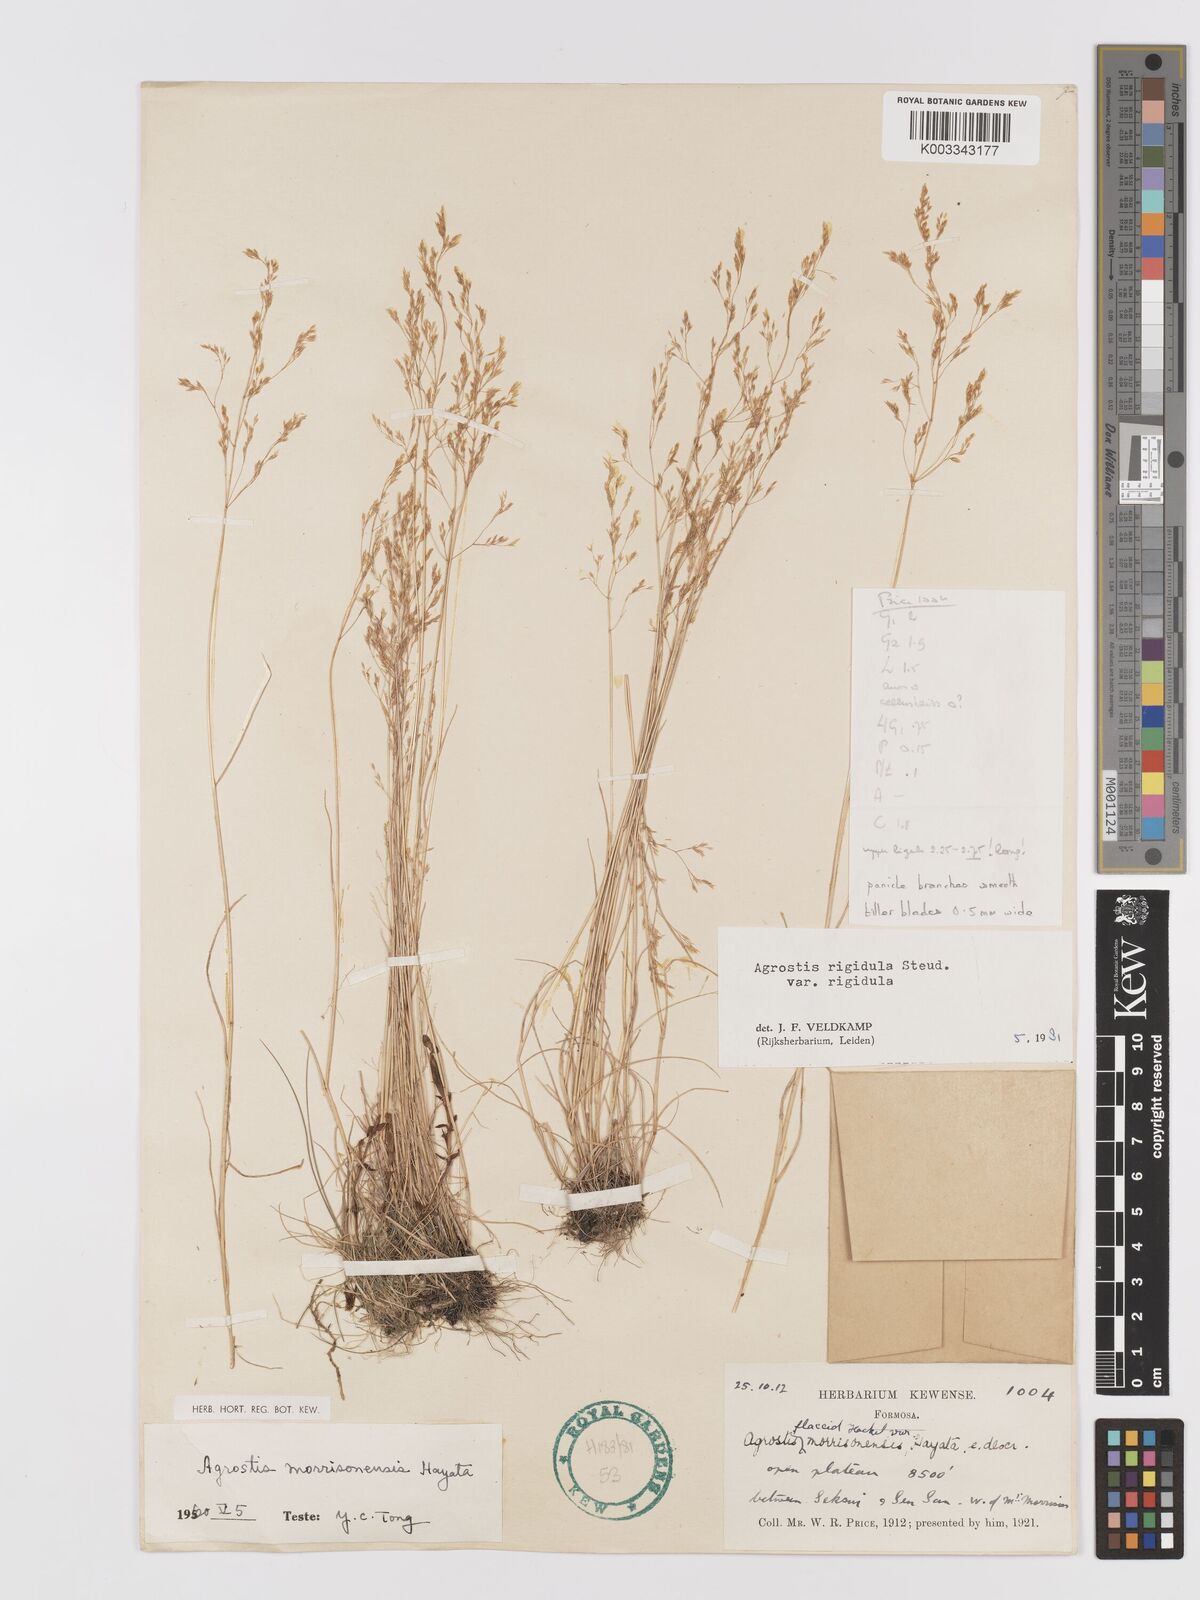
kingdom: Plantae
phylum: Tracheophyta
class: Liliopsida
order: Poales
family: Poaceae
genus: Agrostis
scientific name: Agrostis infirma
